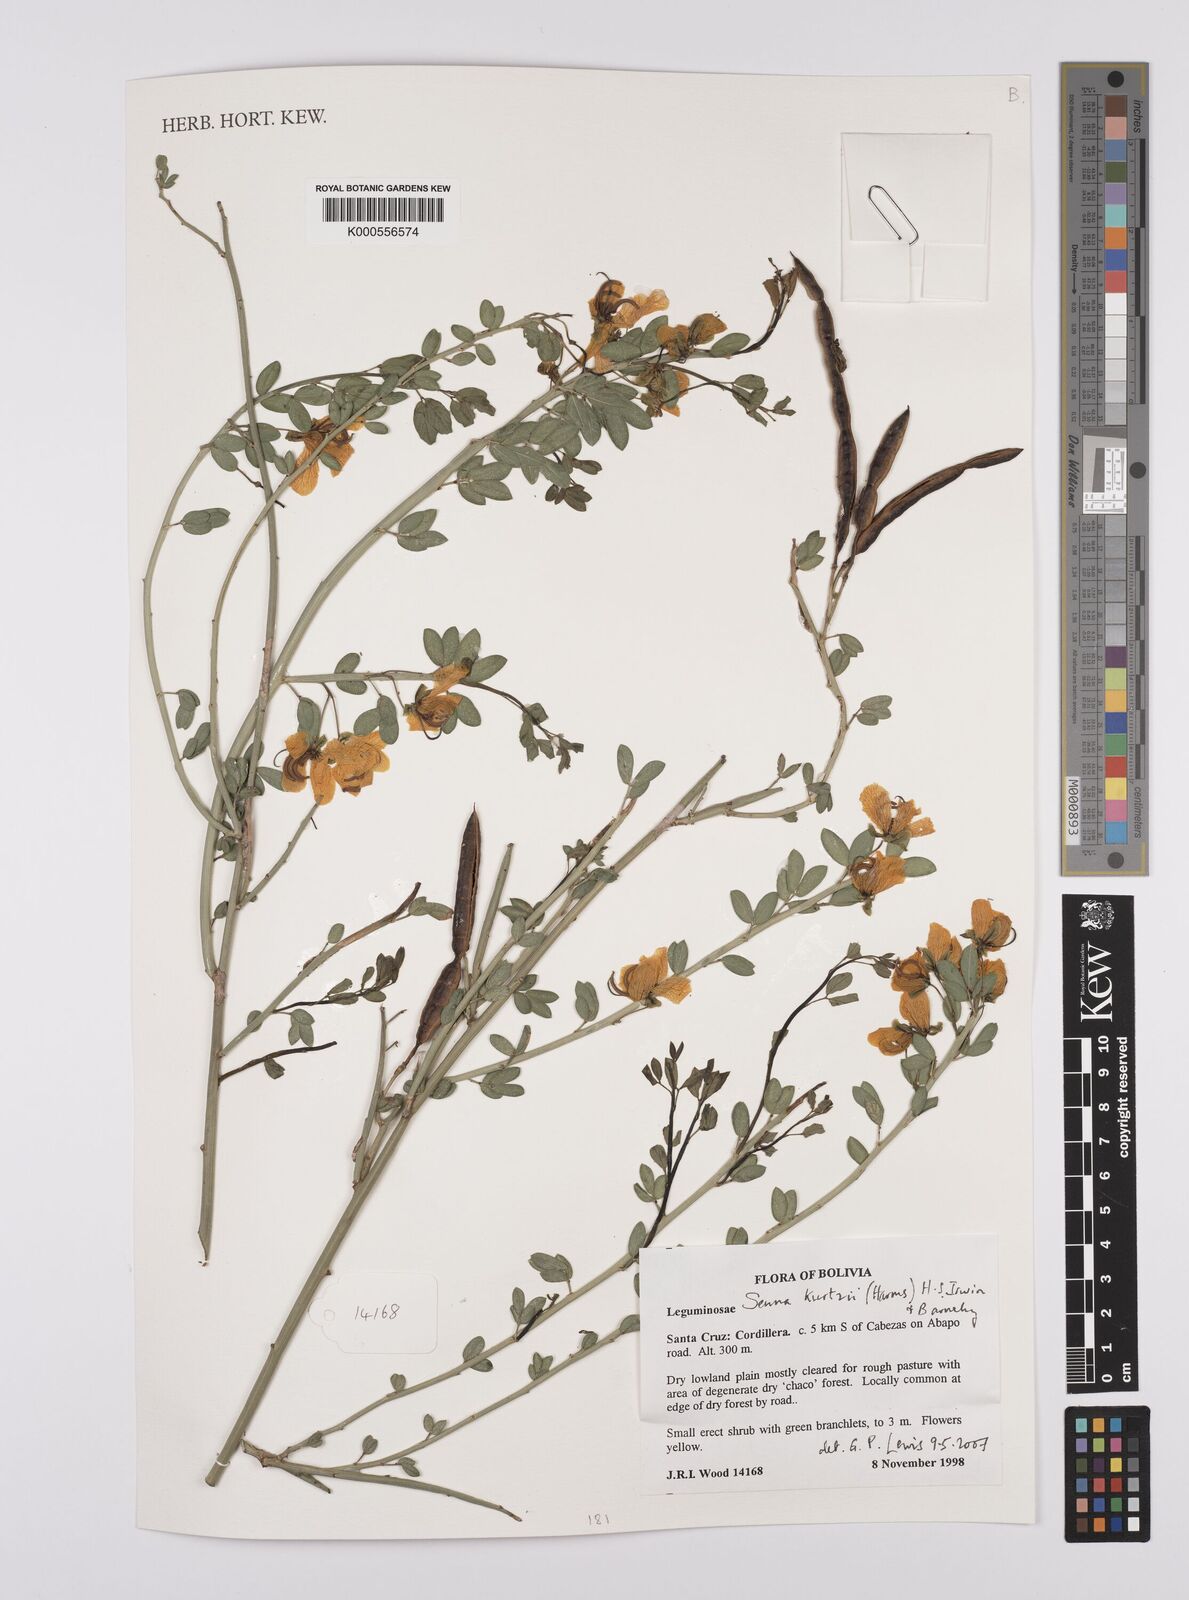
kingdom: Plantae
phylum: Tracheophyta
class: Magnoliopsida
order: Fabales
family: Fabaceae
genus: Senna
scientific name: Senna kurtzii
